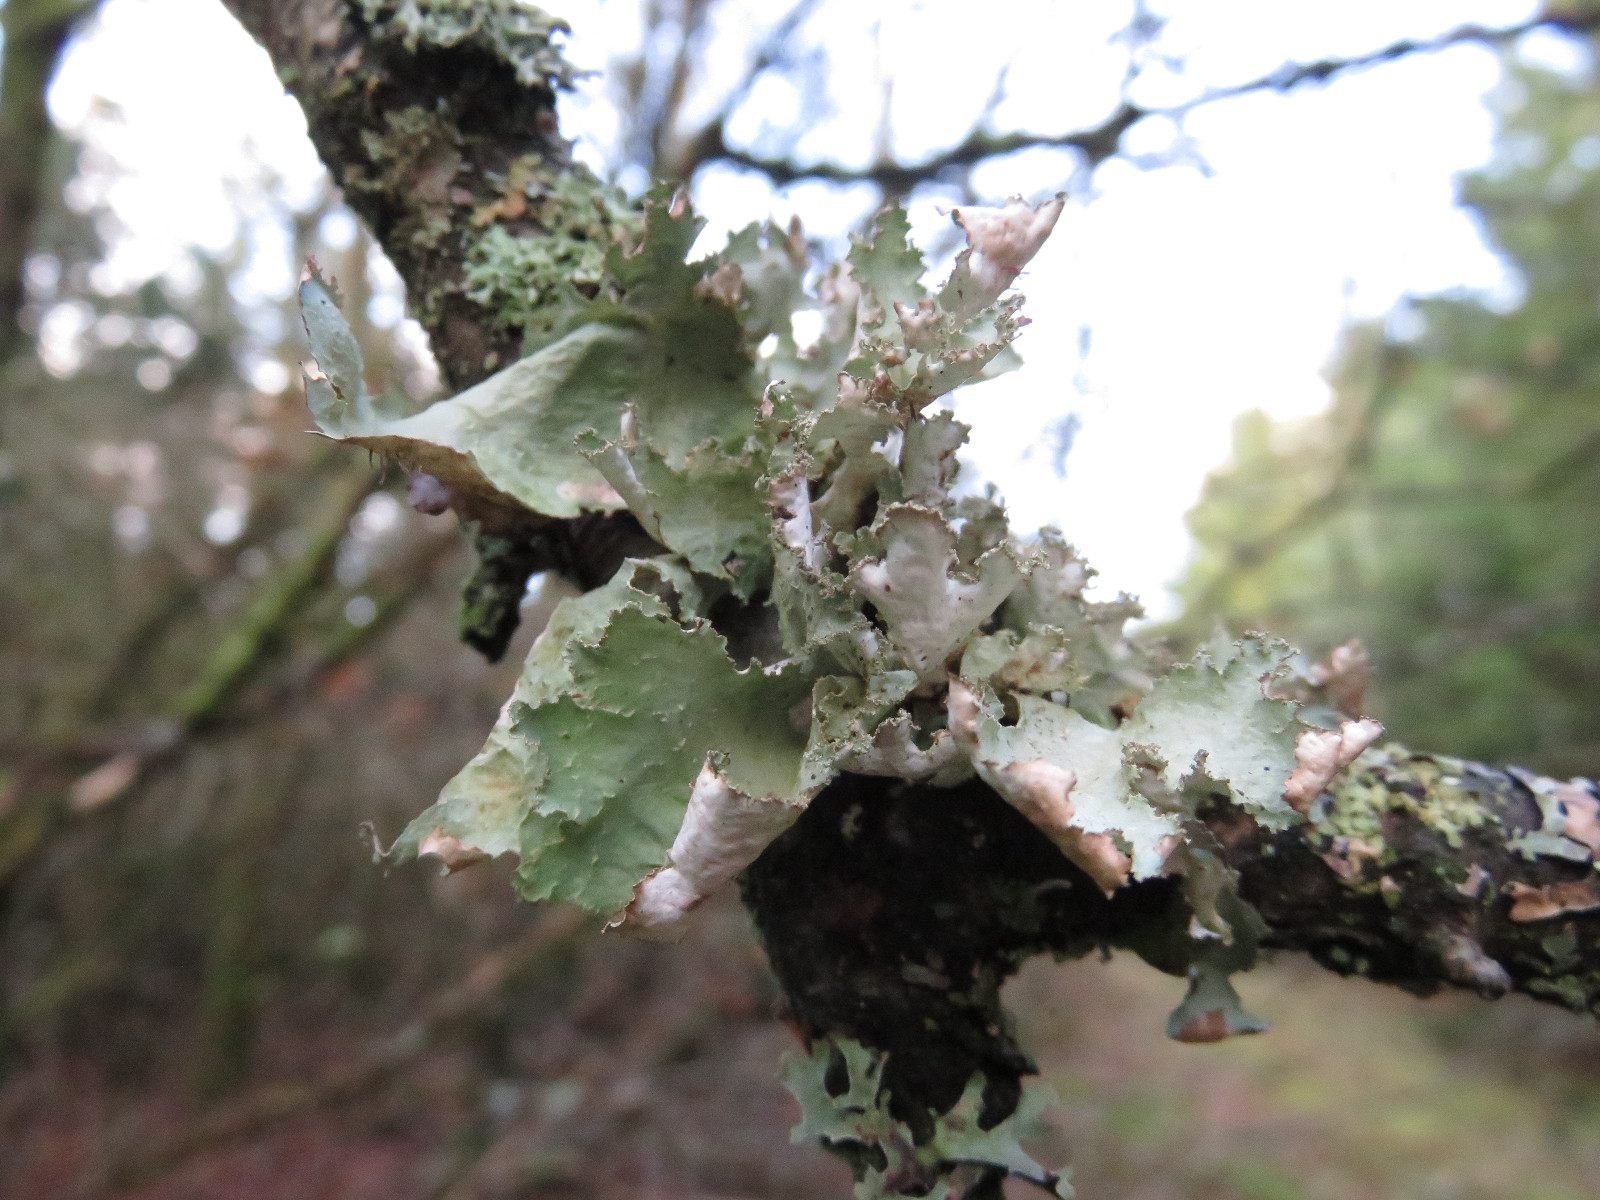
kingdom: Fungi
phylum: Ascomycota
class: Lecanoromycetes
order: Lecanorales
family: Parmeliaceae
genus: Platismatia
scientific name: Platismatia glauca
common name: blågrå papirlav
